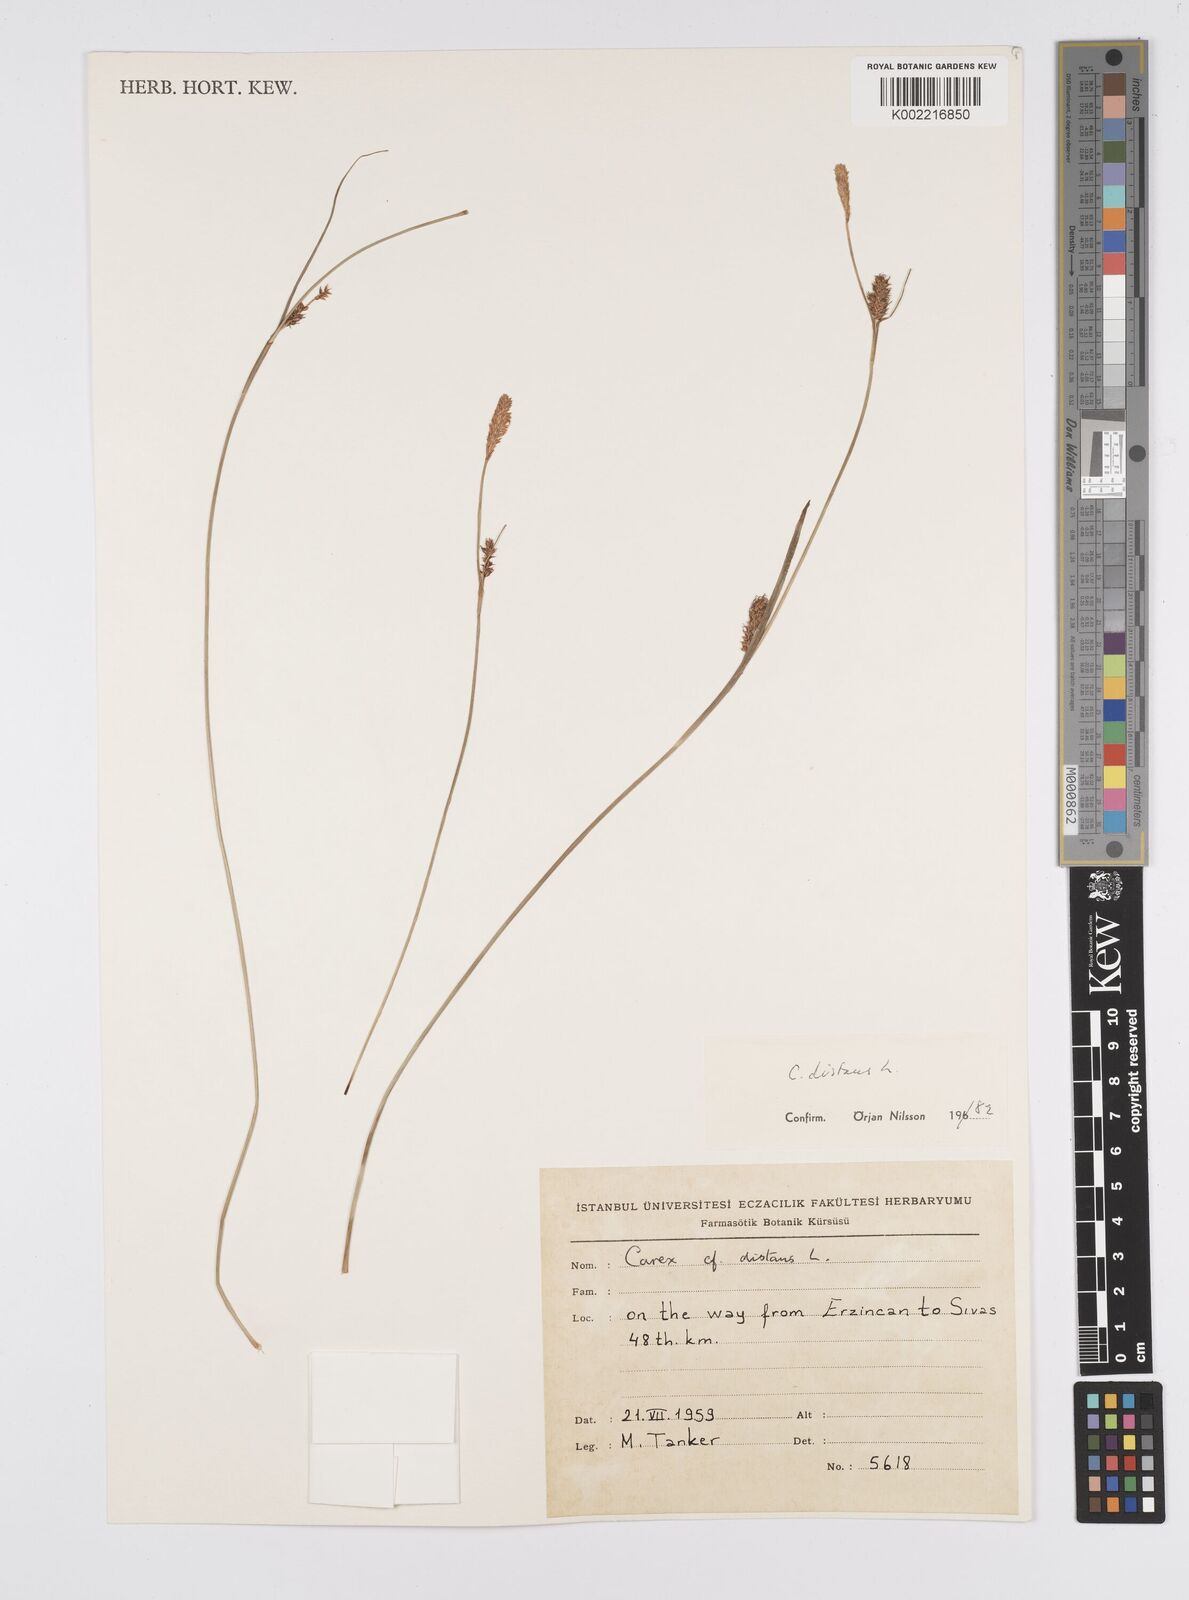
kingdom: Plantae
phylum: Tracheophyta
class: Liliopsida
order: Poales
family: Cyperaceae
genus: Carex
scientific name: Carex distans
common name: Distant sedge
